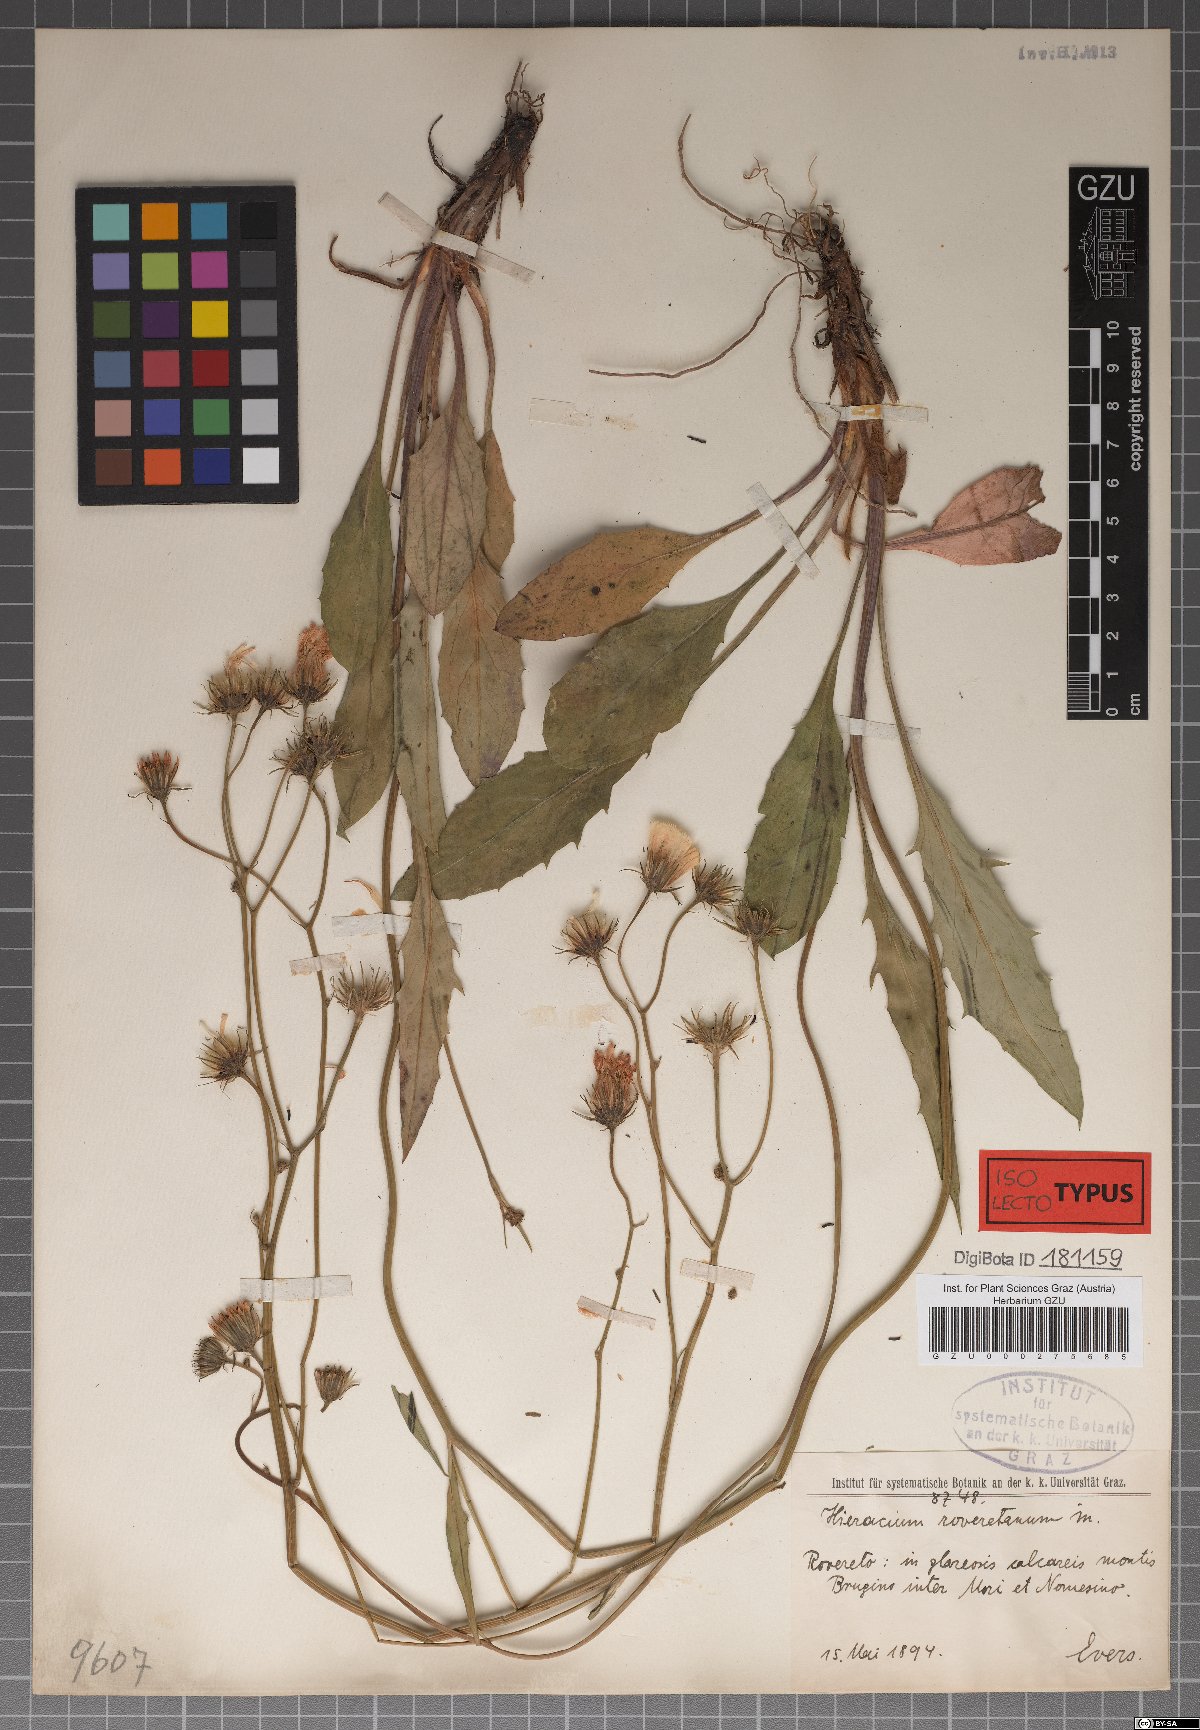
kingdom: Plantae
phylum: Tracheophyta
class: Magnoliopsida
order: Asterales
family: Asteraceae
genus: Hieracium
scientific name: Hieracium dollineri
